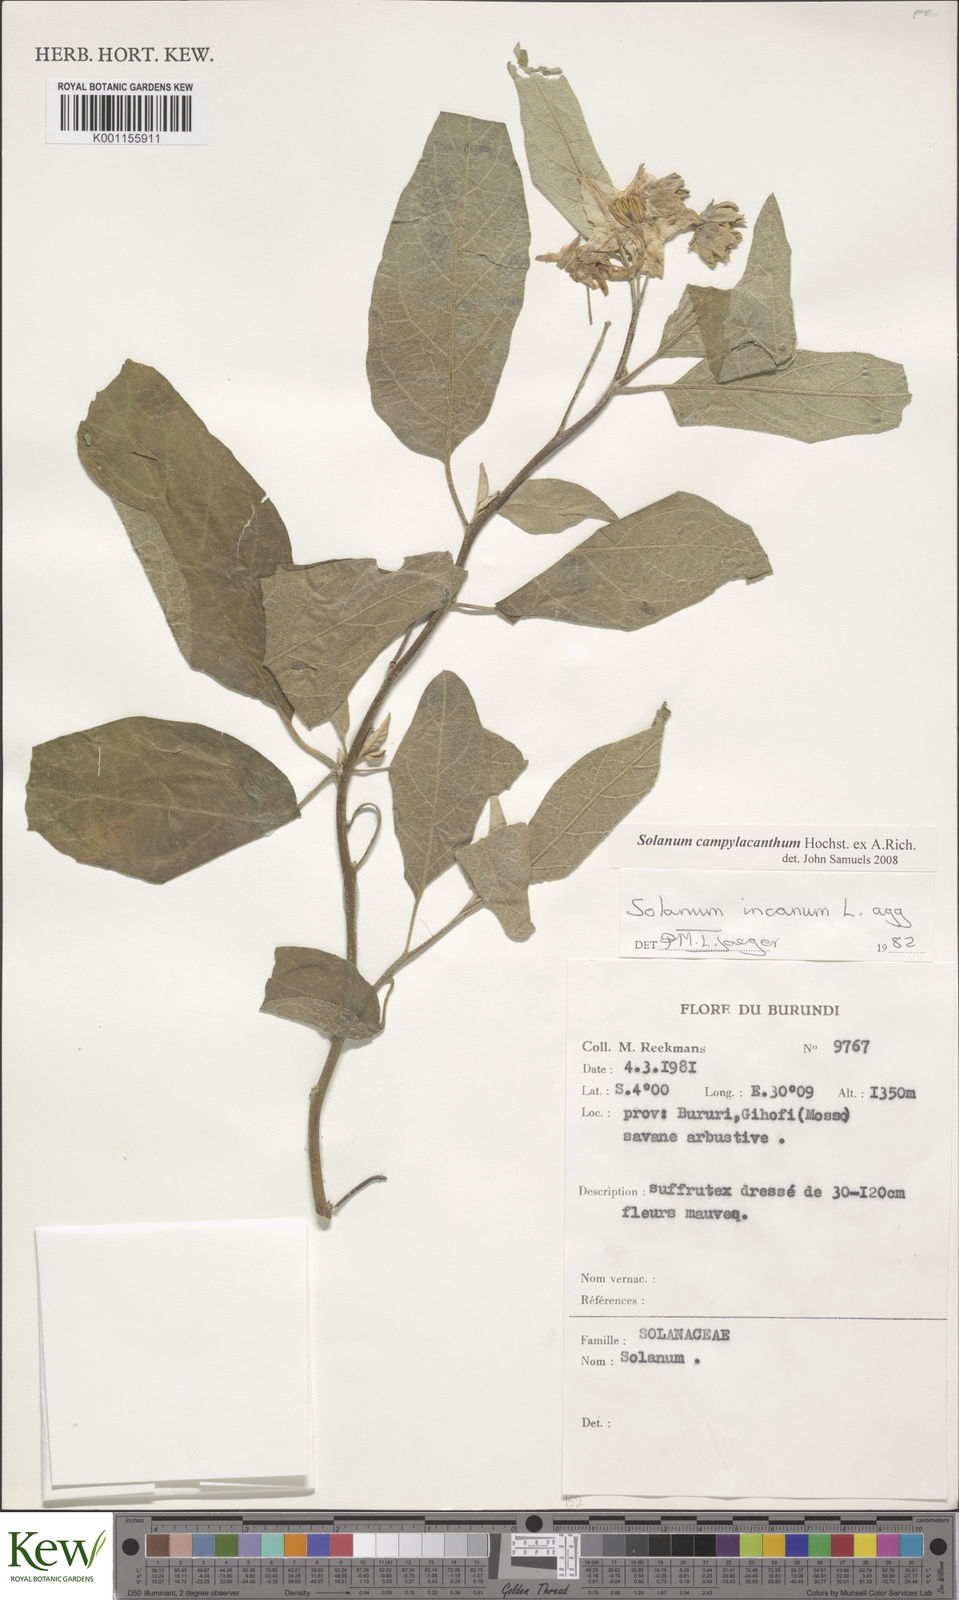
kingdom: Plantae
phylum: Tracheophyta
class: Magnoliopsida
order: Solanales
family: Solanaceae
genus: Solanum
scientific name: Solanum campylacanthum
